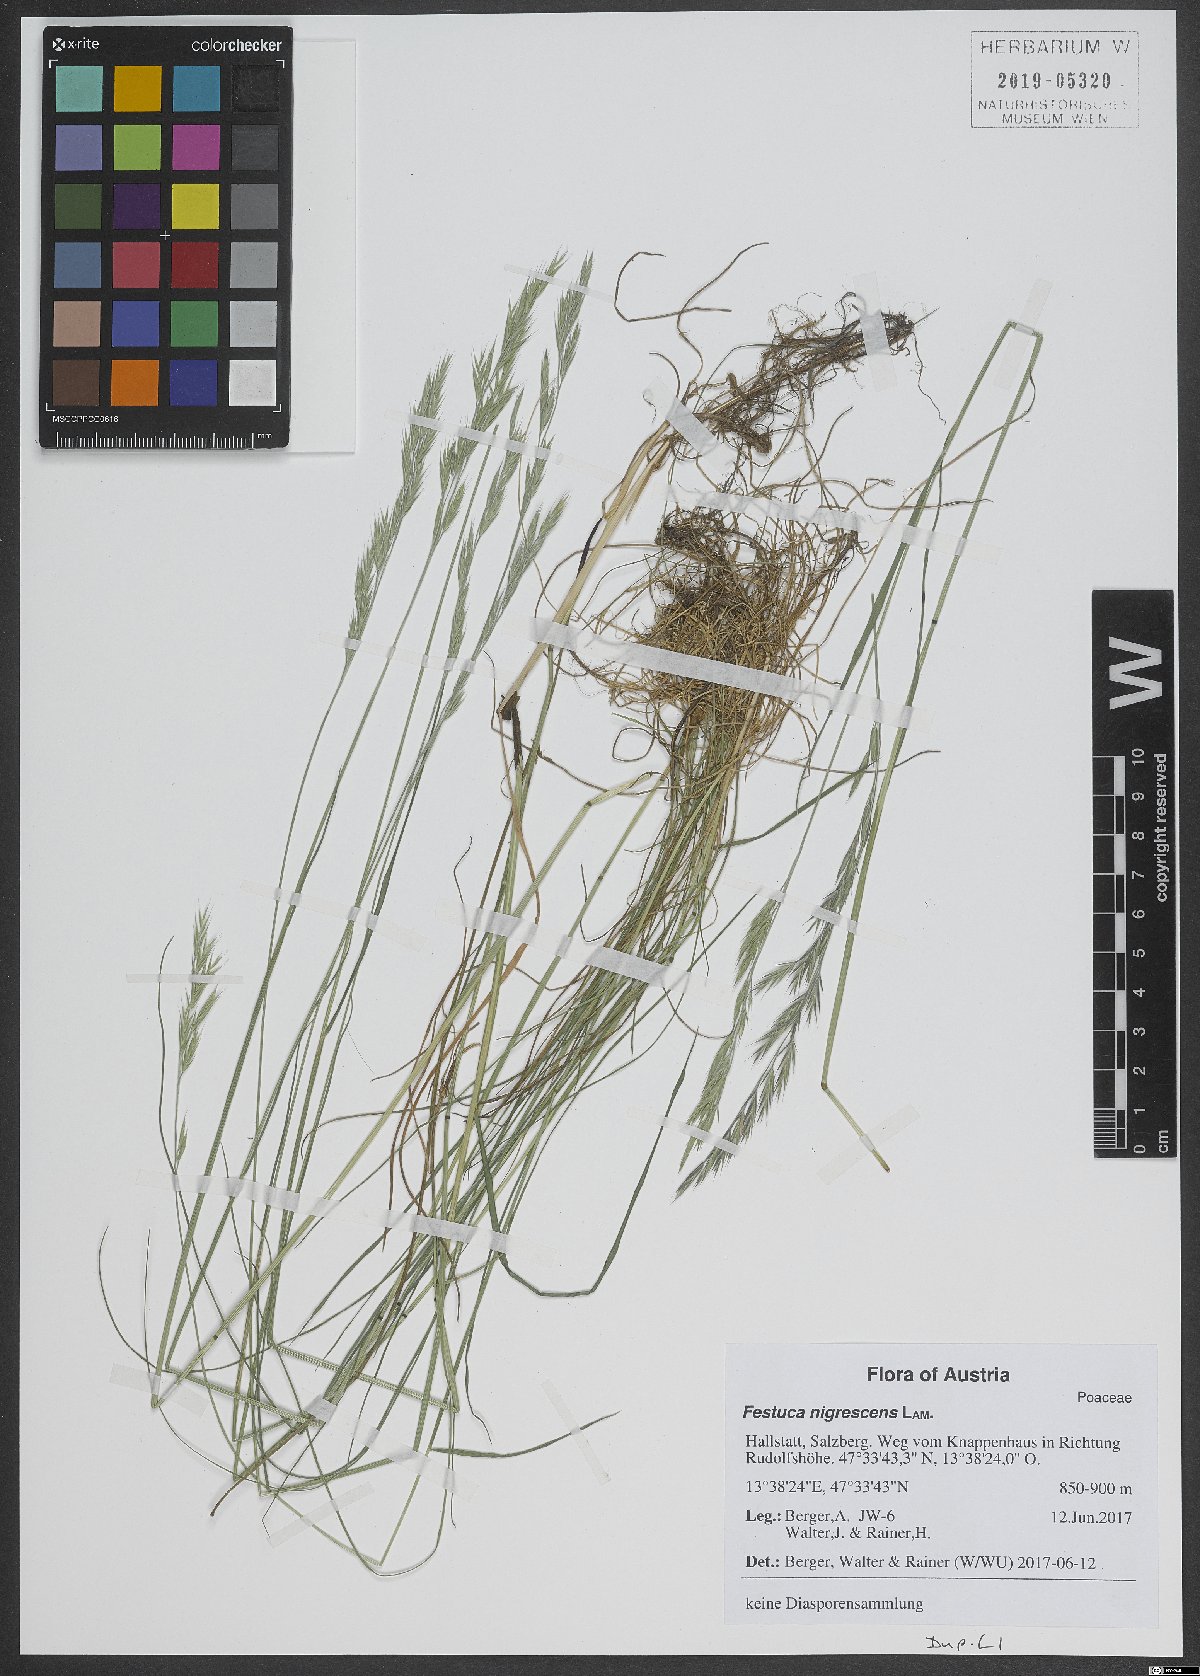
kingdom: Plantae
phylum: Tracheophyta
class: Liliopsida
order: Poales
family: Poaceae
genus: Festuca
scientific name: Festuca nigrescens
